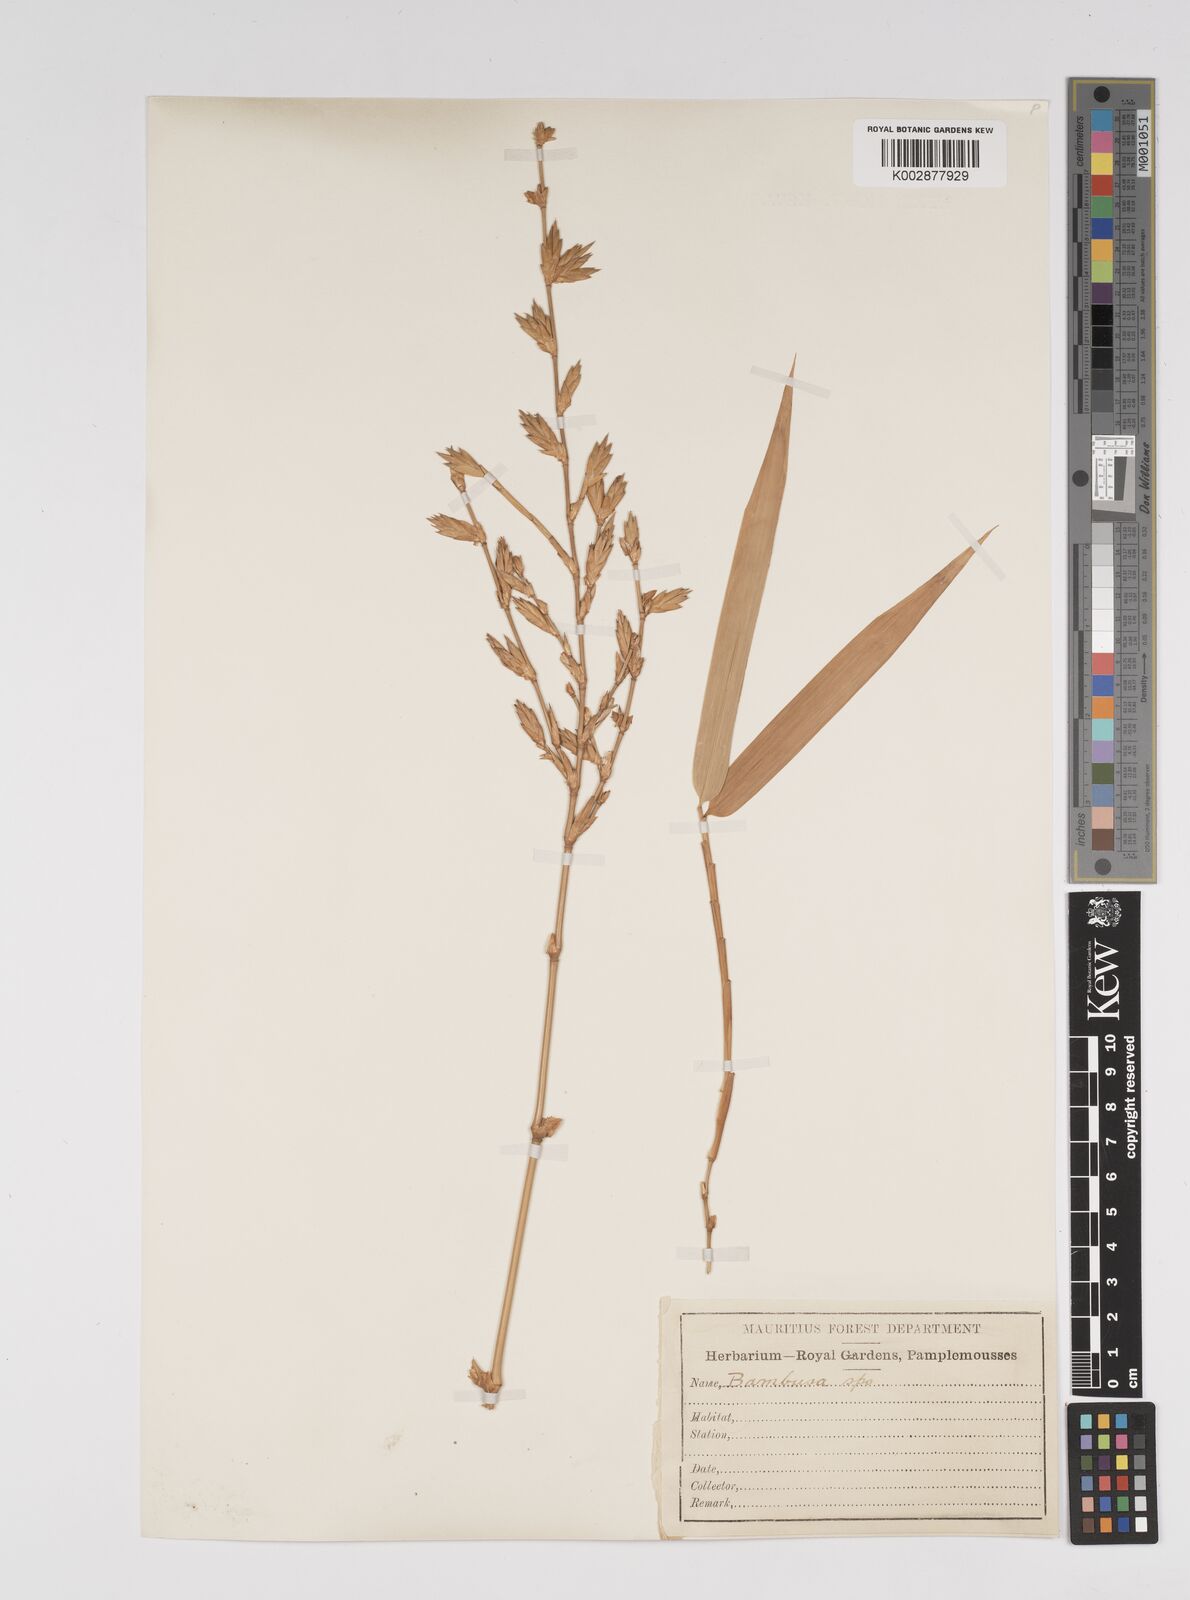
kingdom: Plantae
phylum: Tracheophyta
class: Liliopsida
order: Poales
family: Poaceae
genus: Bambusa
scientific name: Bambusa vulgaris
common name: Common bamboo
